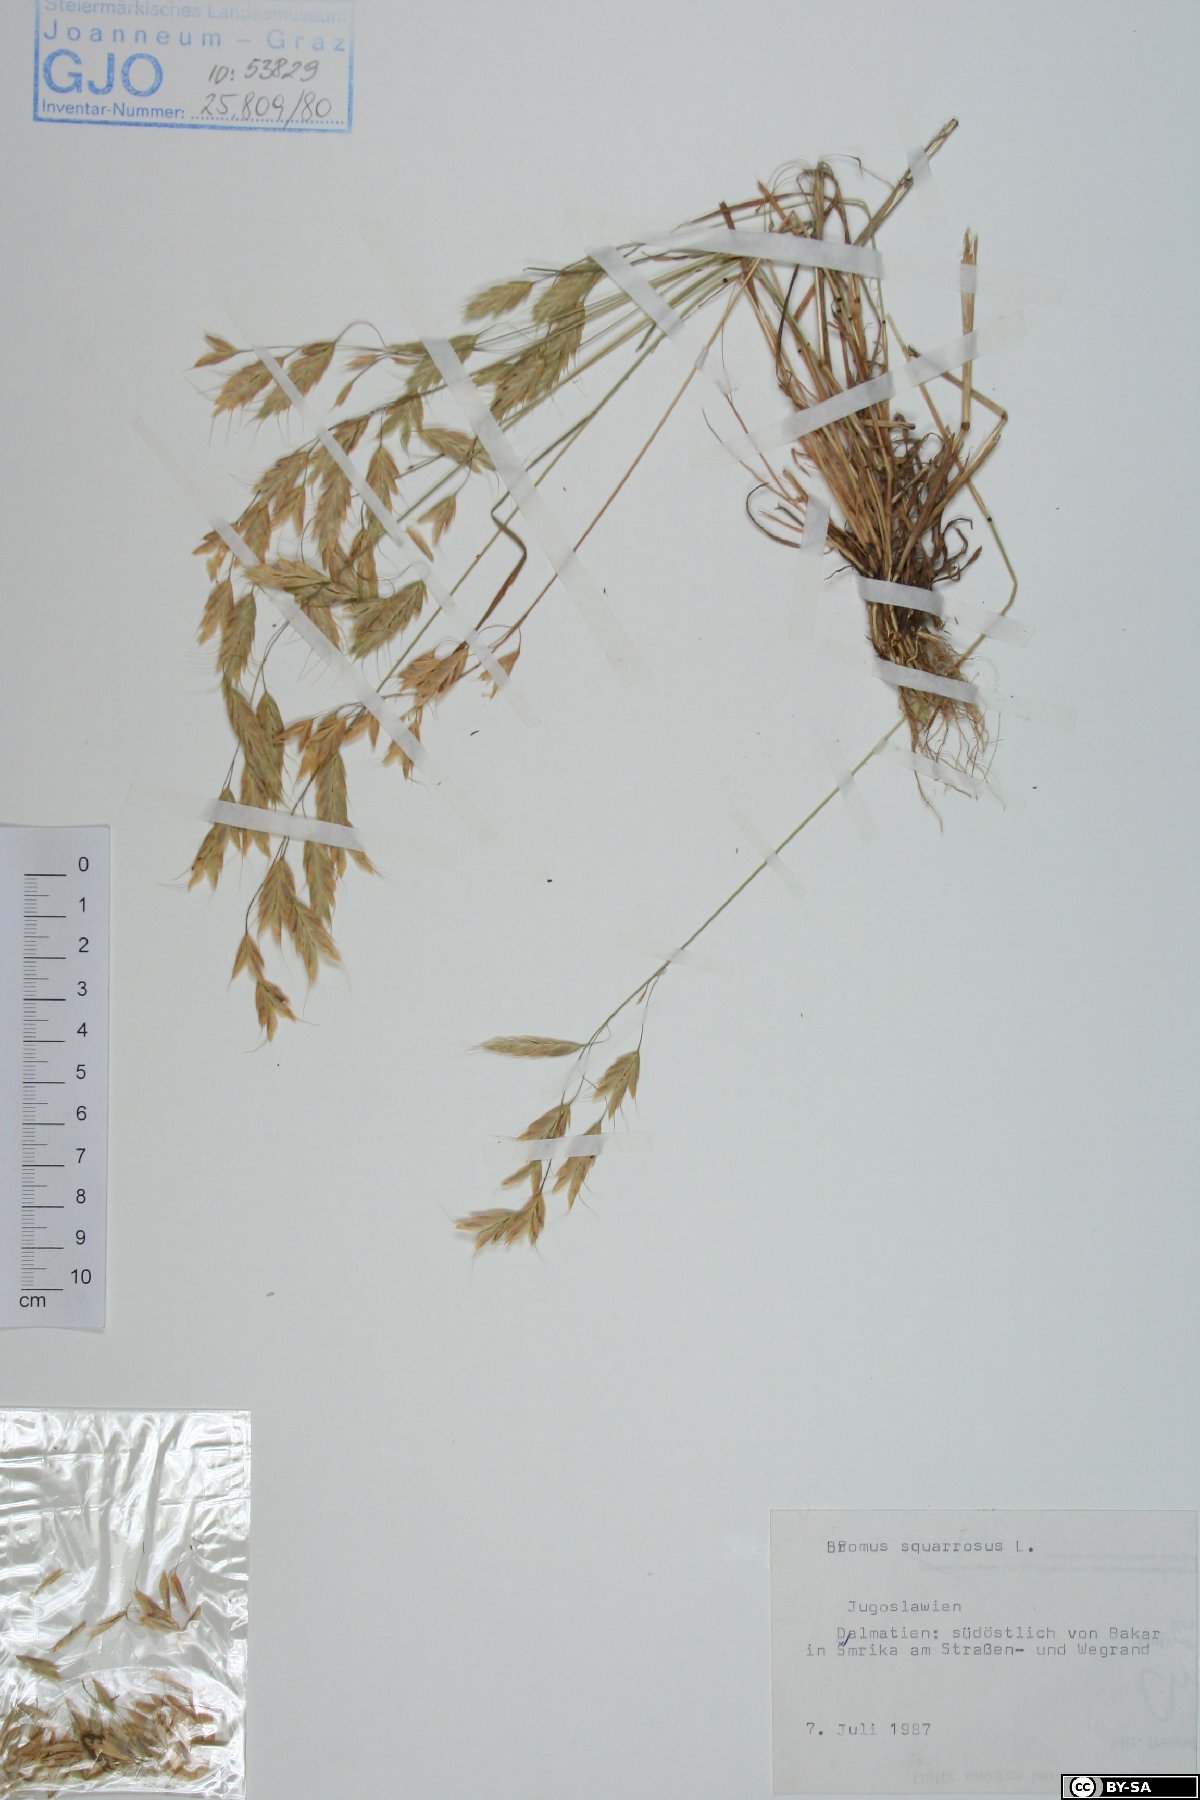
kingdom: Plantae
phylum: Tracheophyta
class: Liliopsida
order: Poales
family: Poaceae
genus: Bromus
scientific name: Bromus squarrosus
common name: Corn brome
